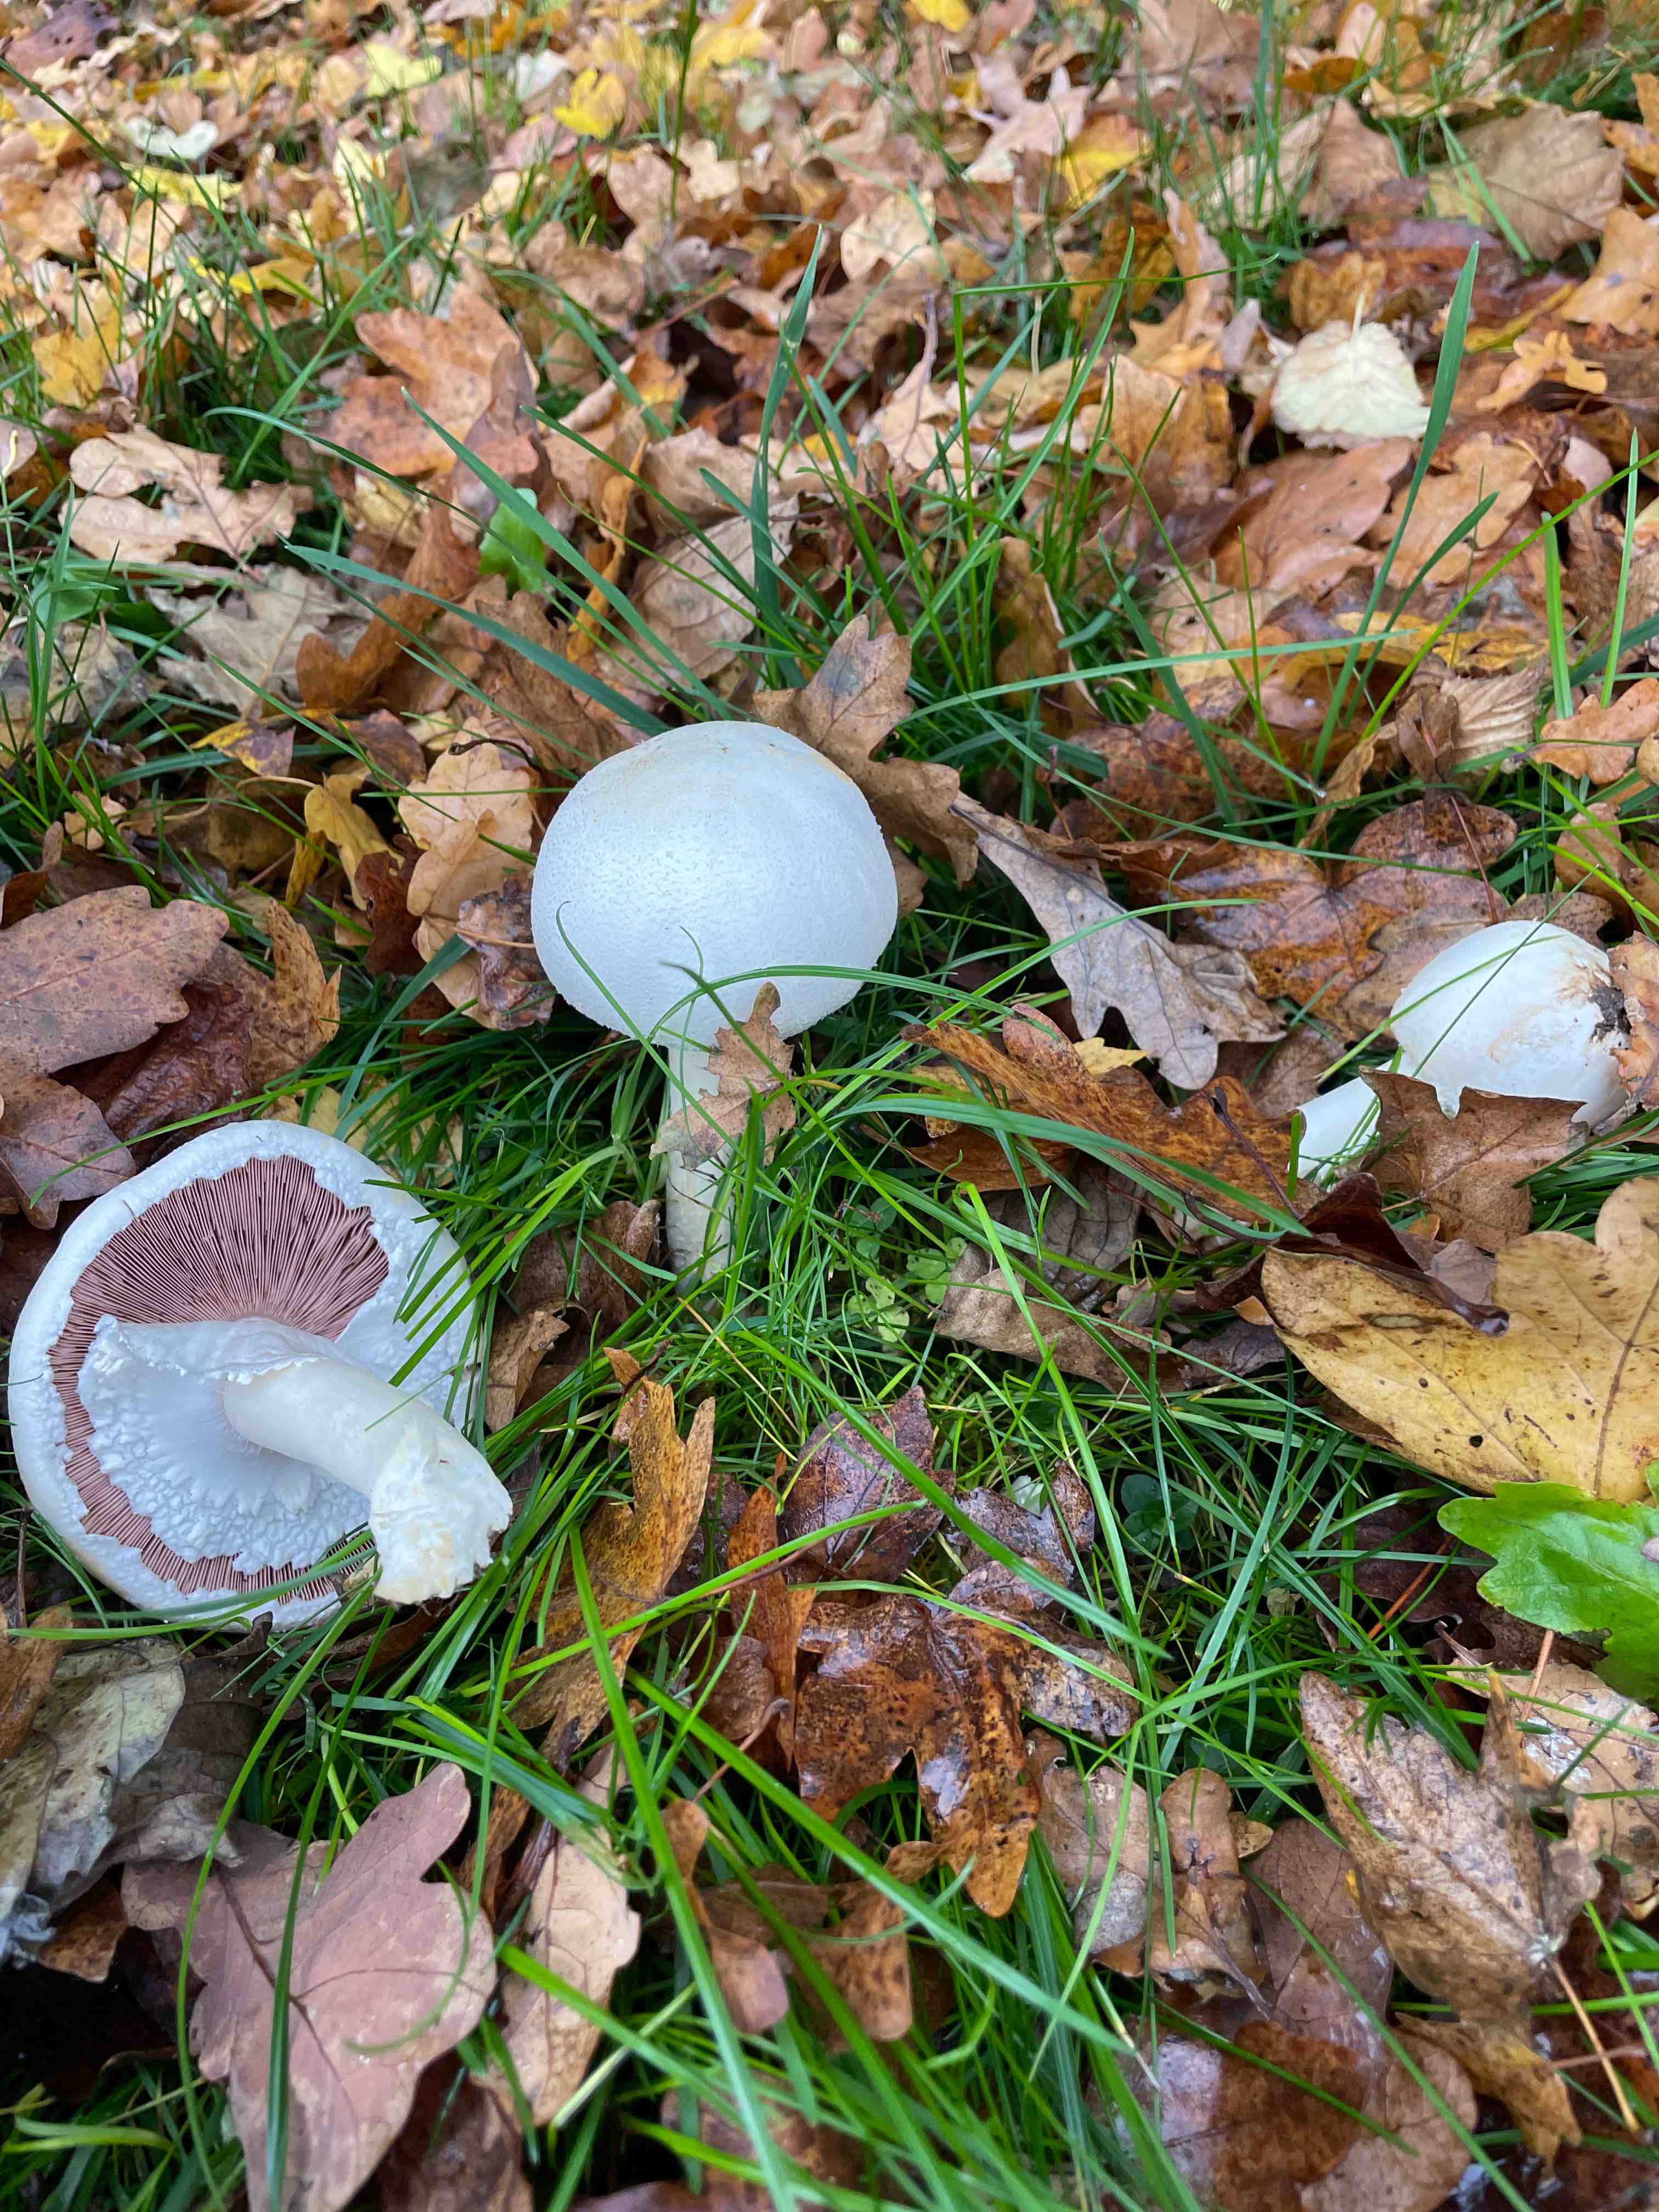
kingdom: Fungi
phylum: Basidiomycota
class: Agaricomycetes
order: Agaricales
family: Agaricaceae
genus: Agaricus
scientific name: Agaricus
